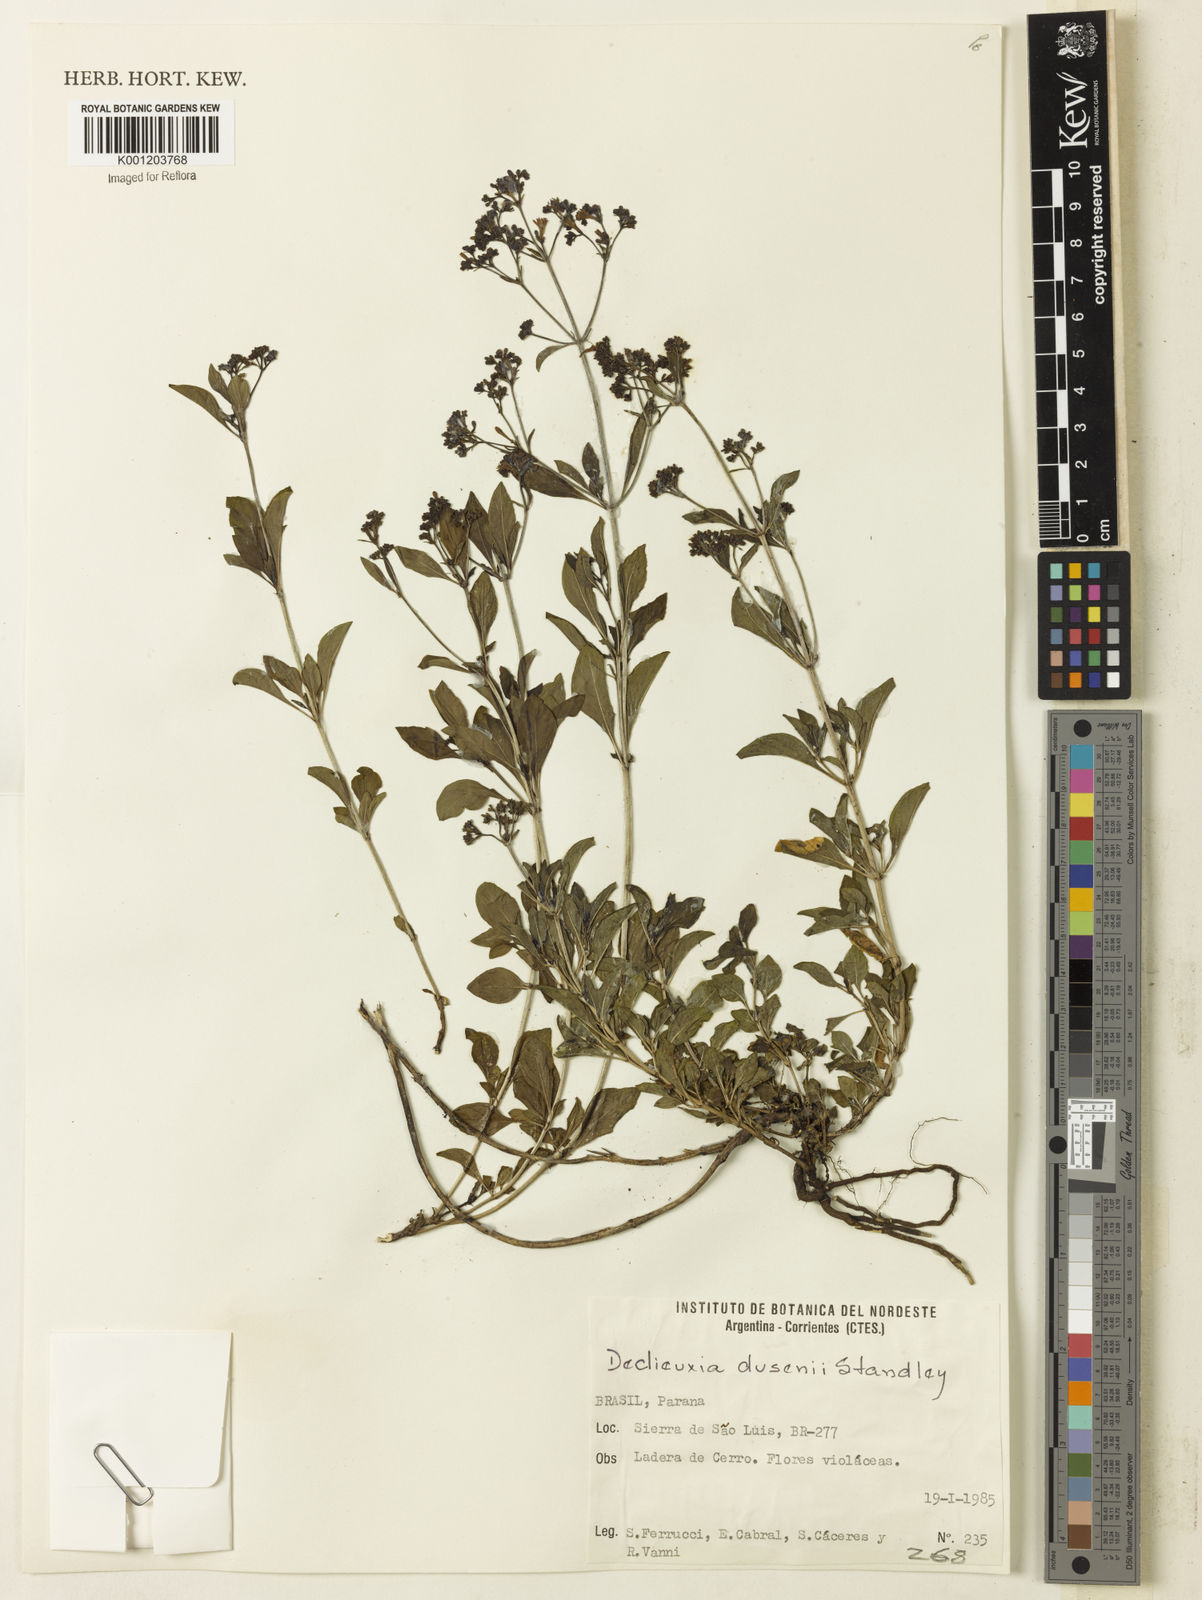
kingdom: Plantae
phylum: Tracheophyta
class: Magnoliopsida
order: Gentianales
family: Rubiaceae
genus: Declieuxia
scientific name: Declieuxia dusenii
